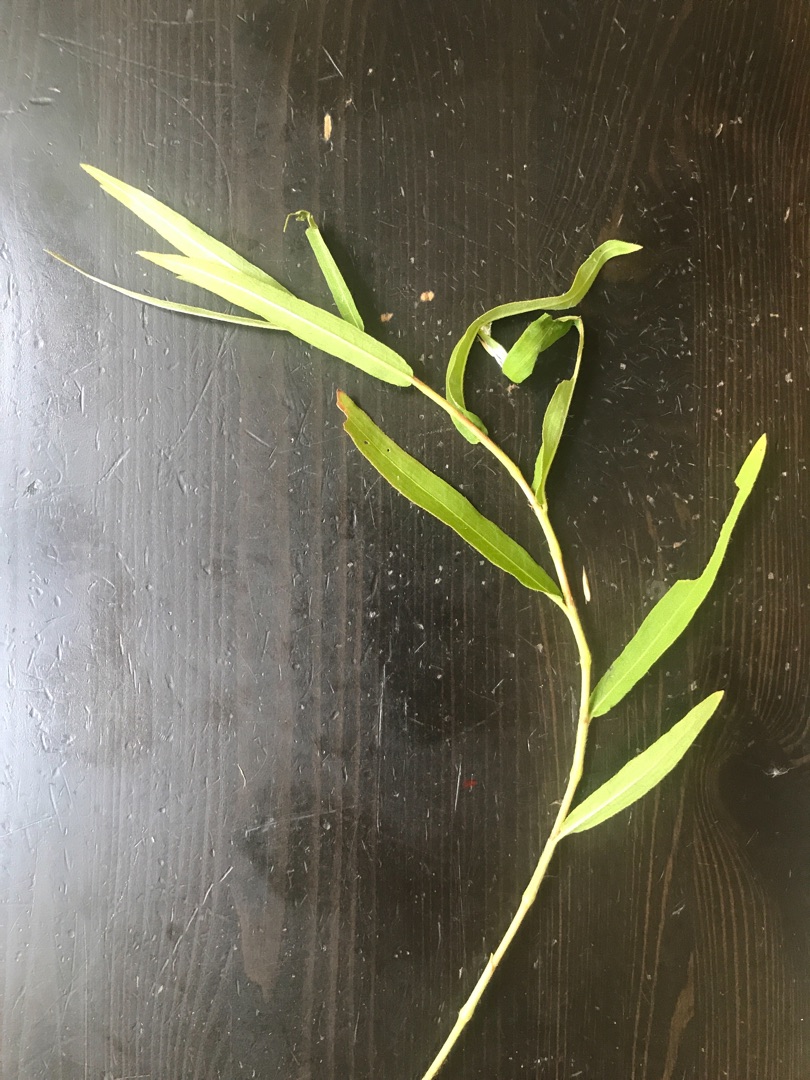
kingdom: Plantae
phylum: Tracheophyta
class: Magnoliopsida
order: Caryophyllales
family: Polygonaceae
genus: Persicaria
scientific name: Persicaria amphibia
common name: Vand-pileurt
